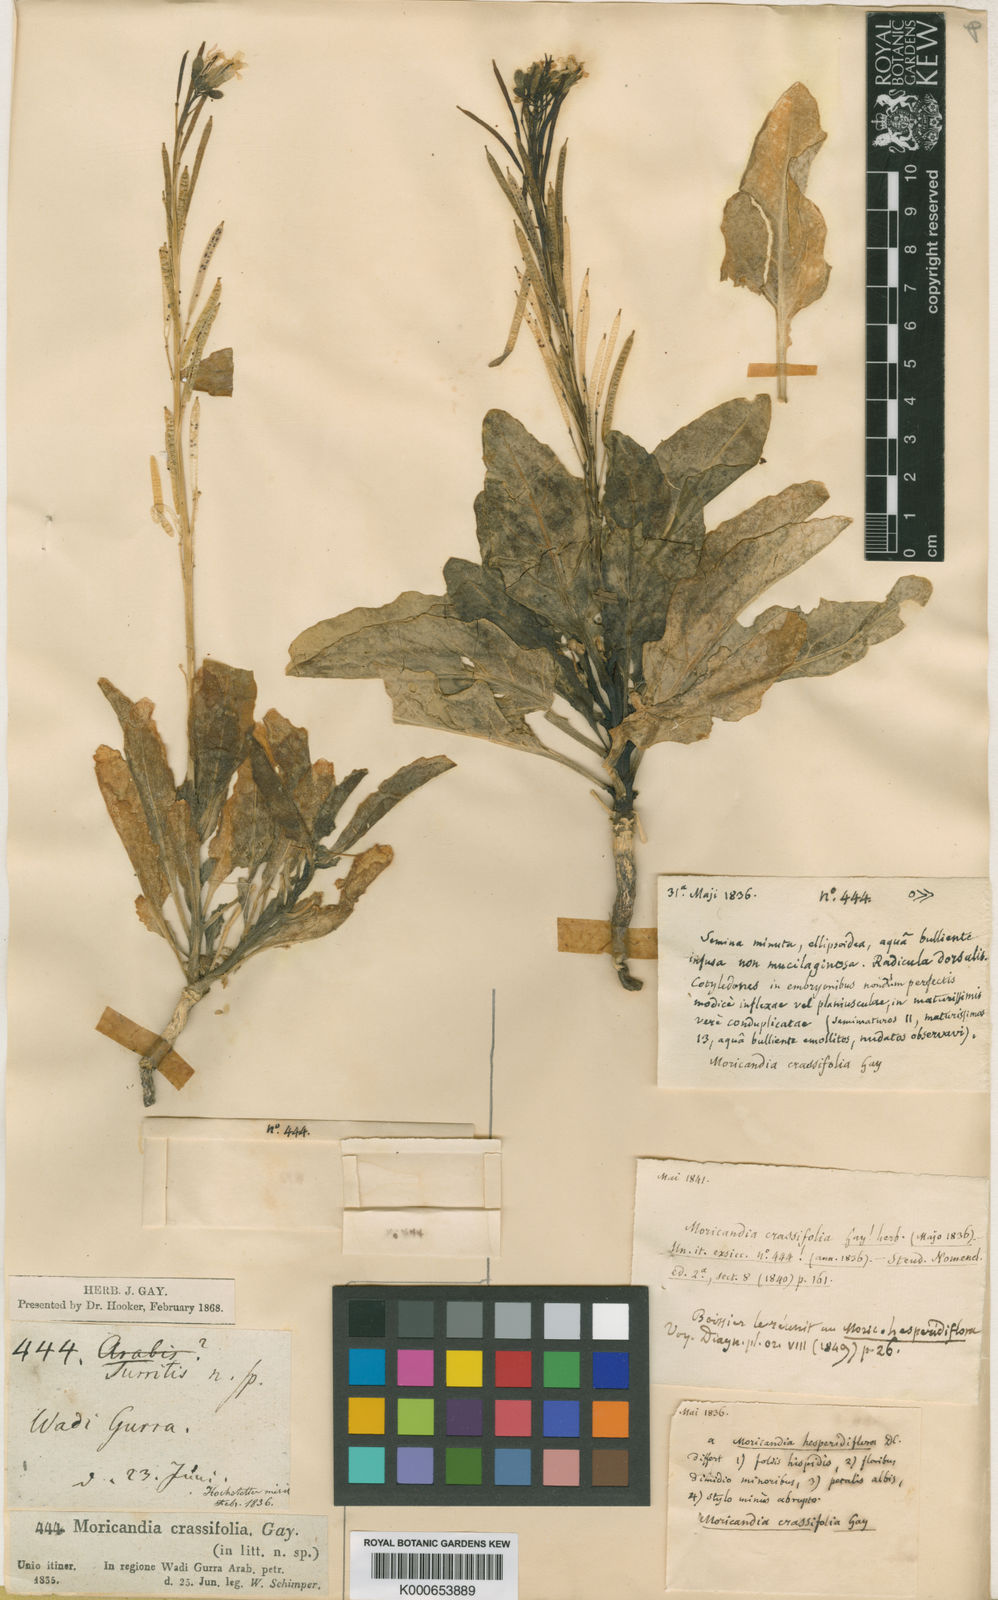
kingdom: Plantae
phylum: Tracheophyta
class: Magnoliopsida
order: Brassicales
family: Brassicaceae
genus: Diplotaxis
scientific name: Diplotaxis acris
